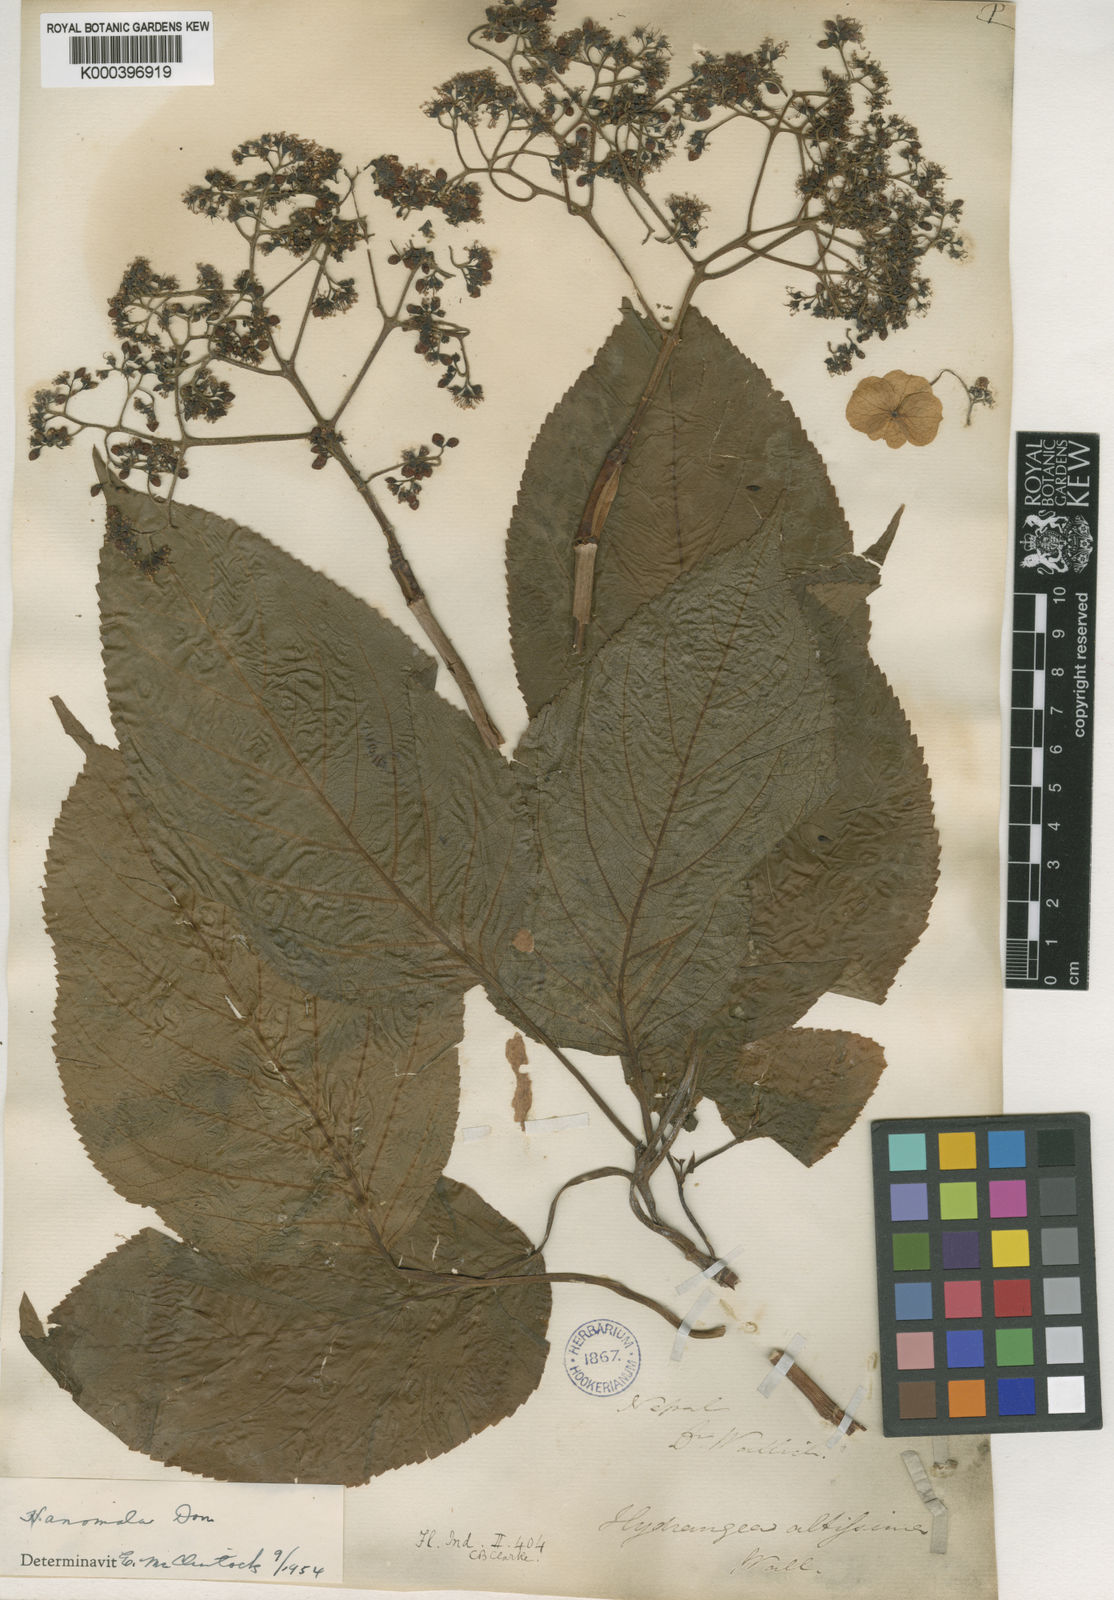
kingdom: Plantae
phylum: Tracheophyta
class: Magnoliopsida
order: Cornales
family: Hydrangeaceae
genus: Hydrangea
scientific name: Hydrangea anomala
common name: Japanese climbing-hydrangea
